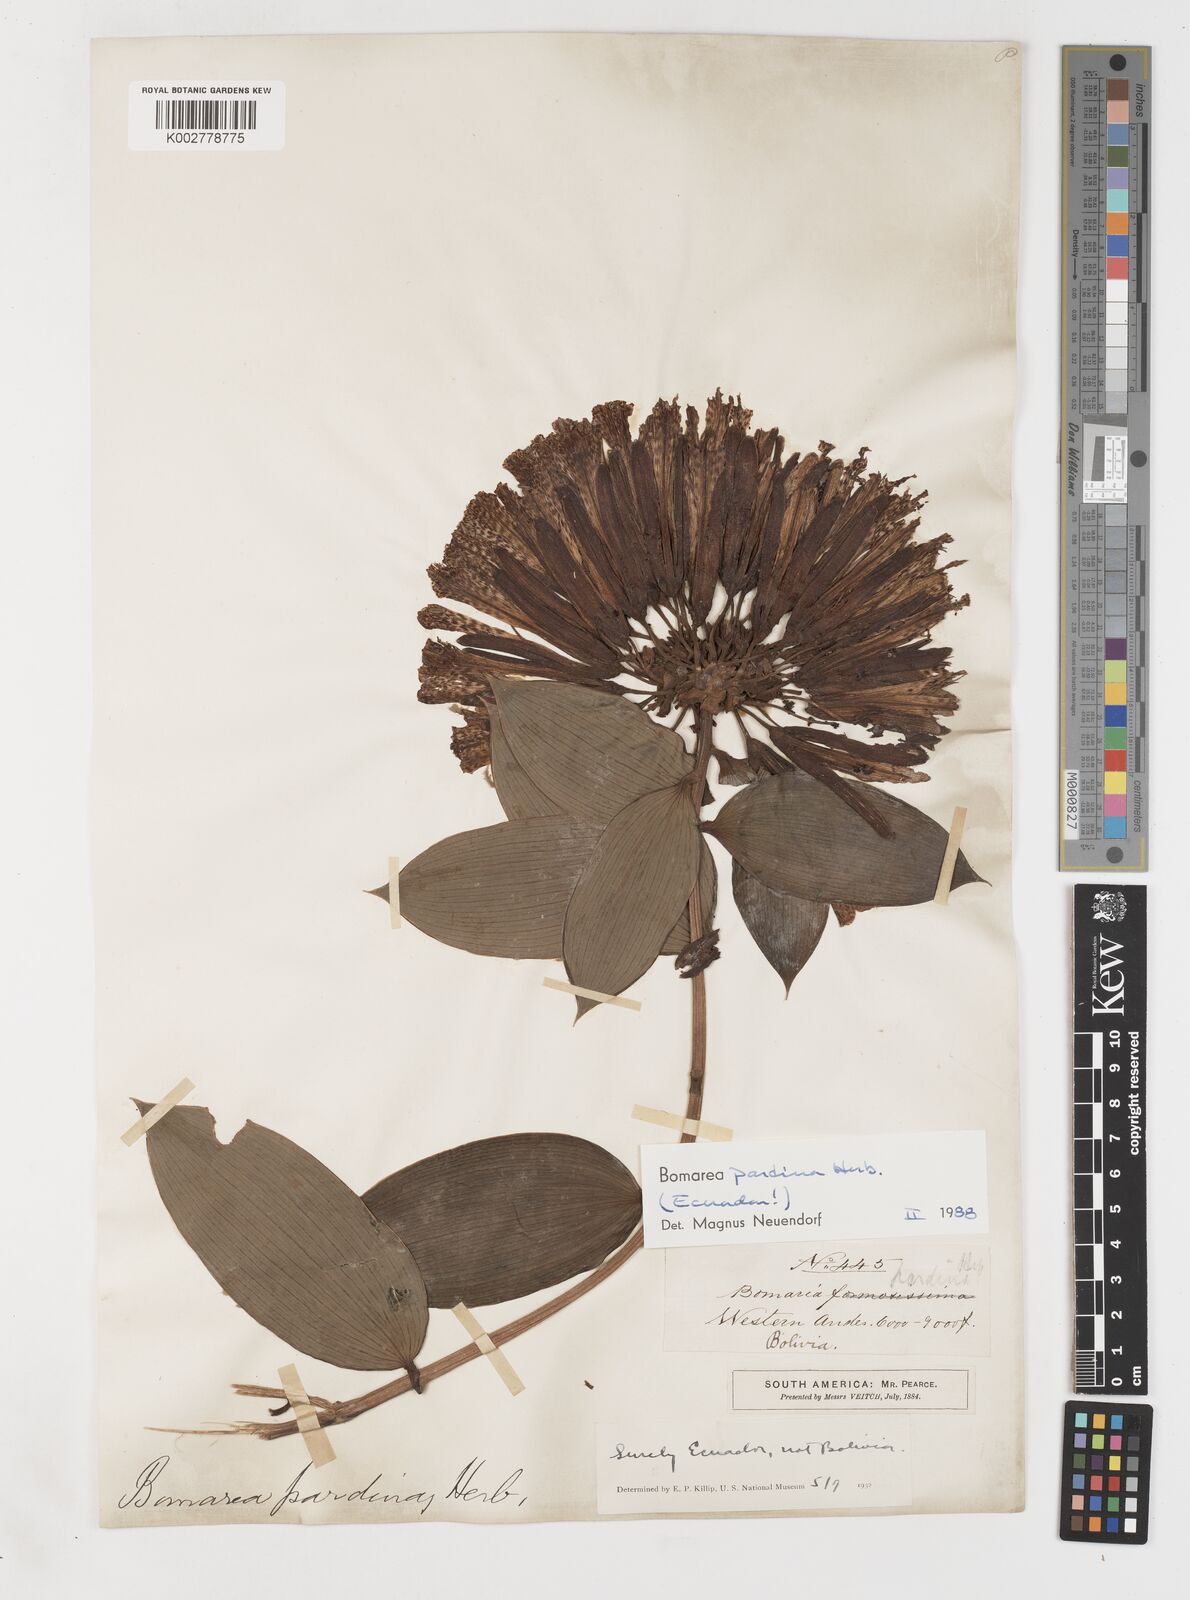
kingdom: Plantae
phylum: Tracheophyta
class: Liliopsida
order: Liliales
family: Alstroemeriaceae
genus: Bomarea
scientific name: Bomarea pardina
